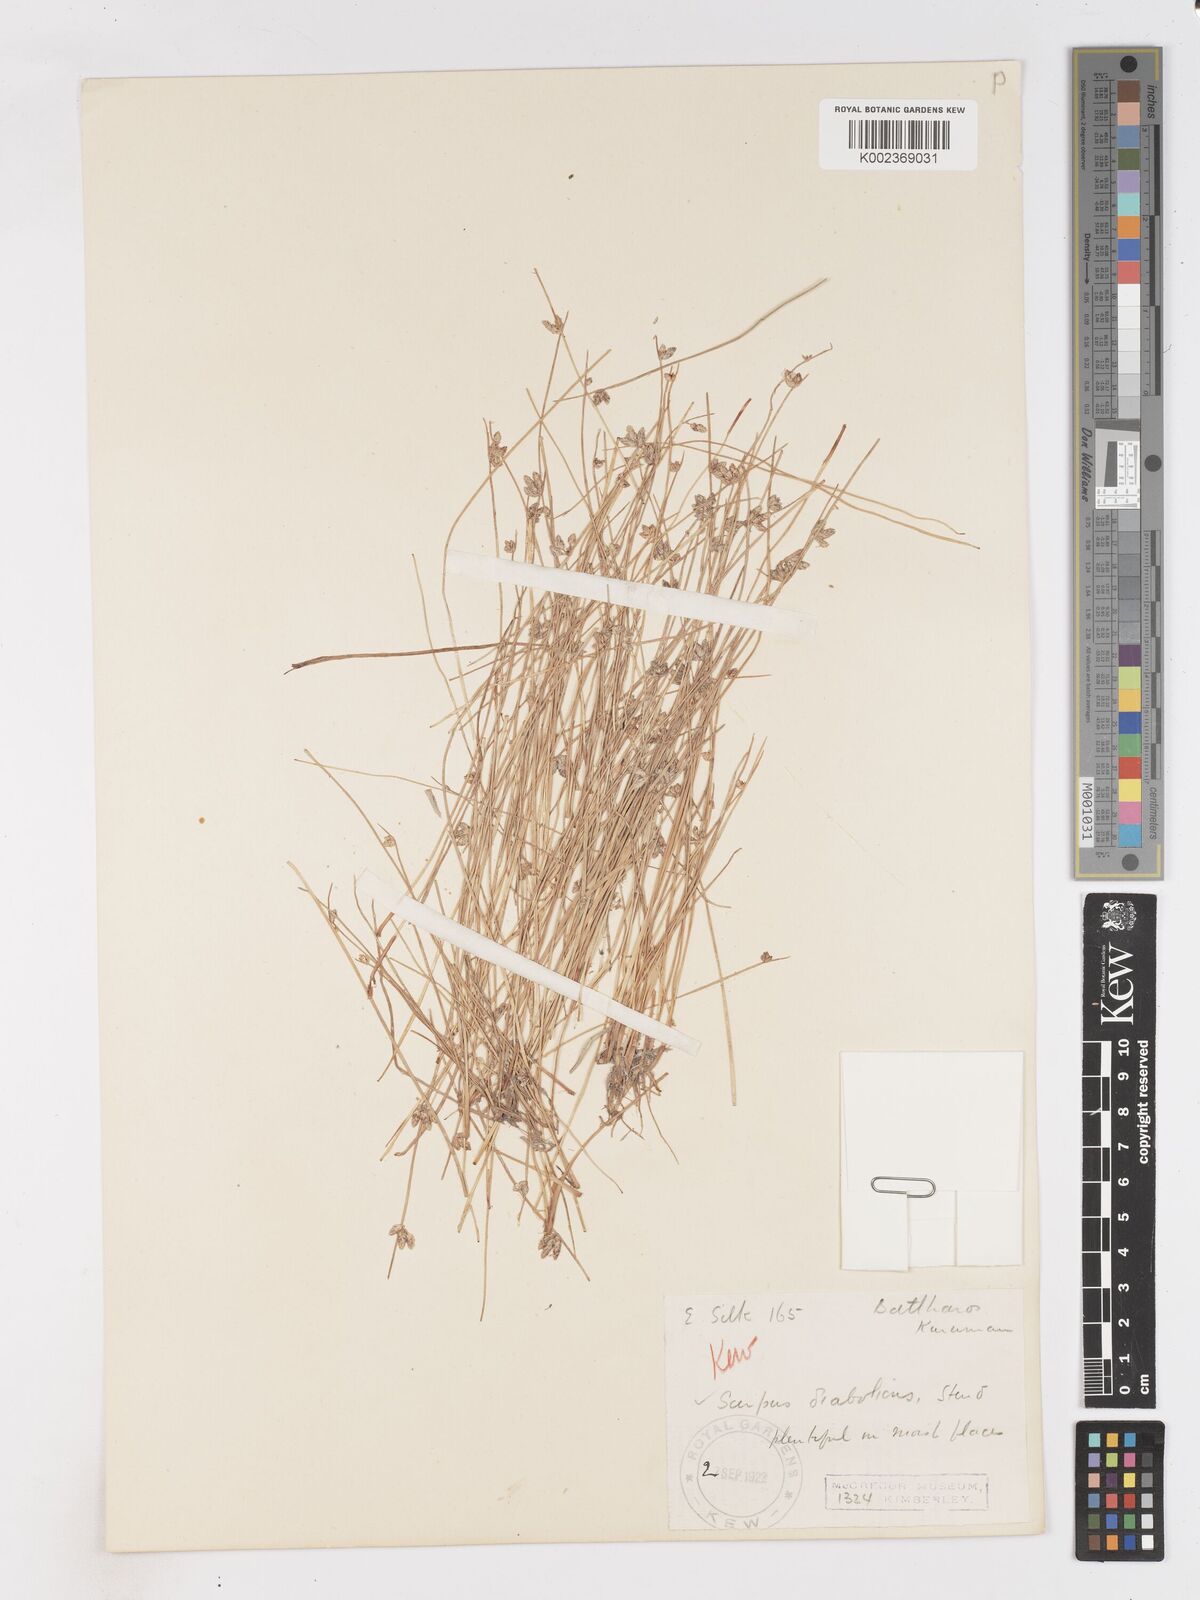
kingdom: Plantae
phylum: Tracheophyta
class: Liliopsida
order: Poales
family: Cyperaceae
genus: Isolepis
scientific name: Isolepis diabolica
